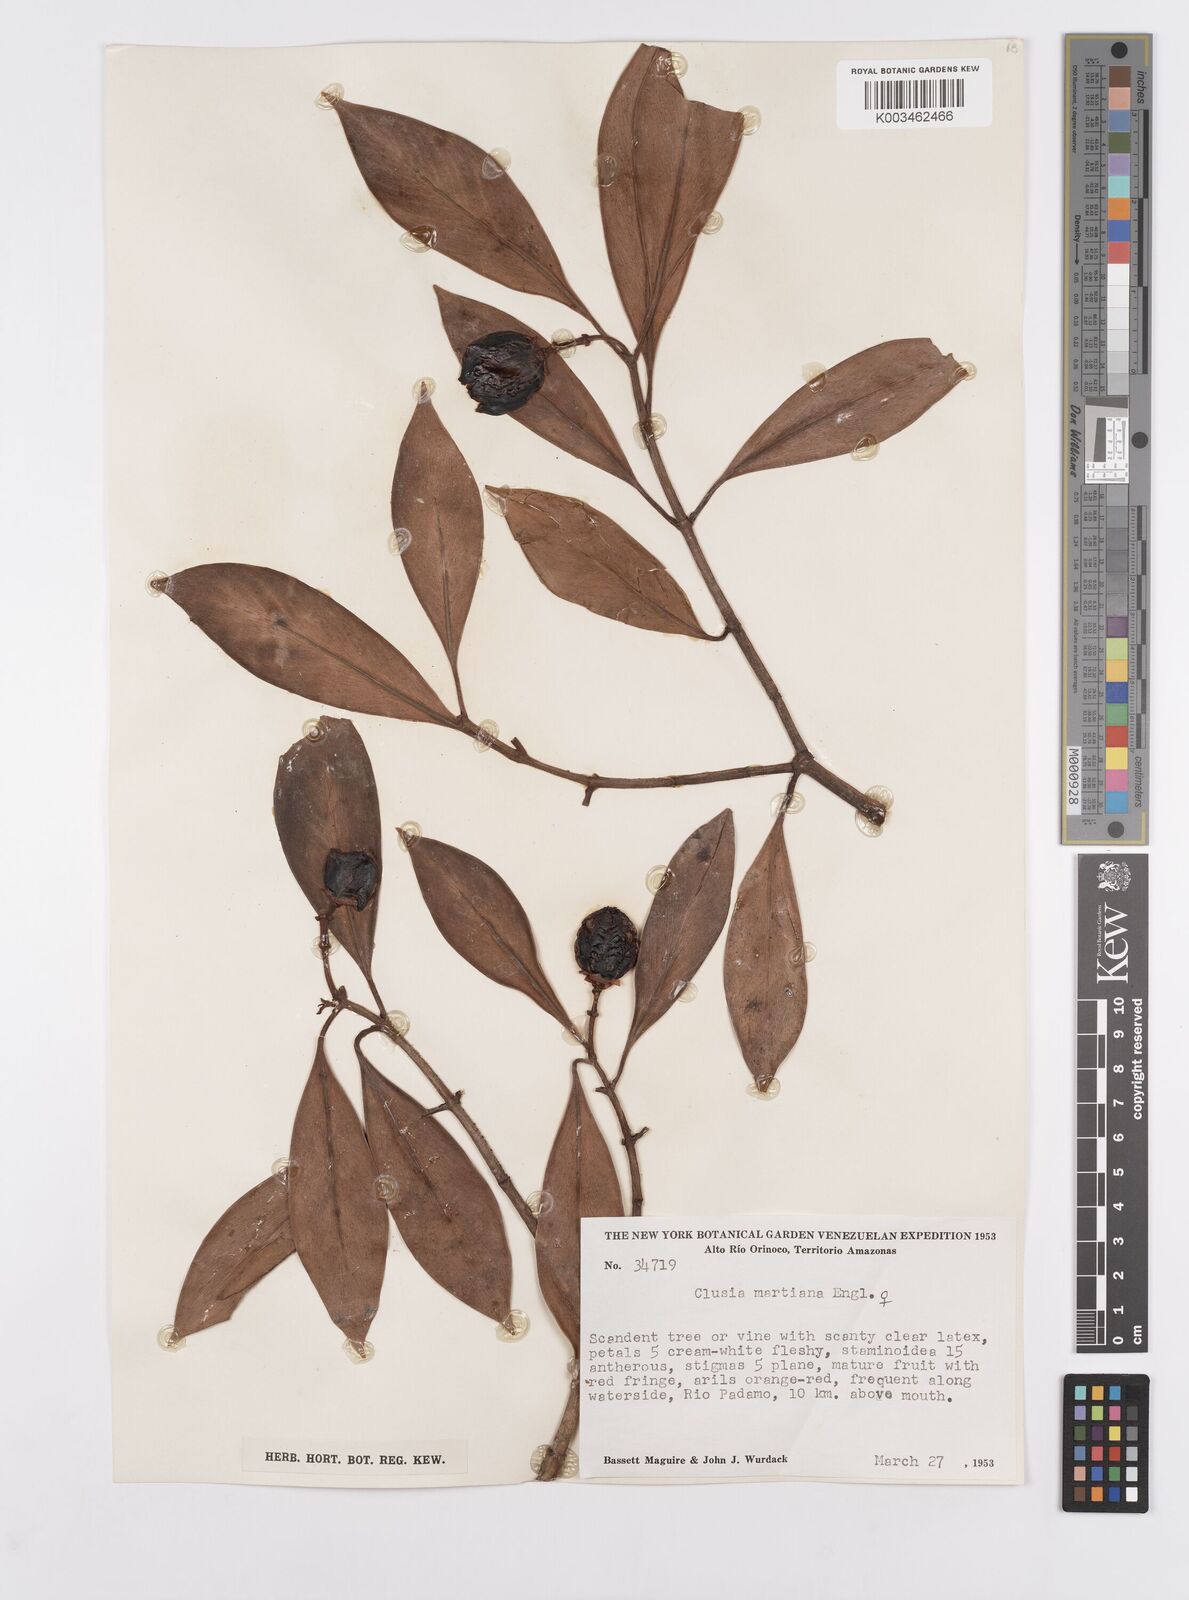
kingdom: Plantae
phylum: Tracheophyta
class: Magnoliopsida
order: Malpighiales
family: Clusiaceae
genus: Clusia
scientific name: Clusia martiana
